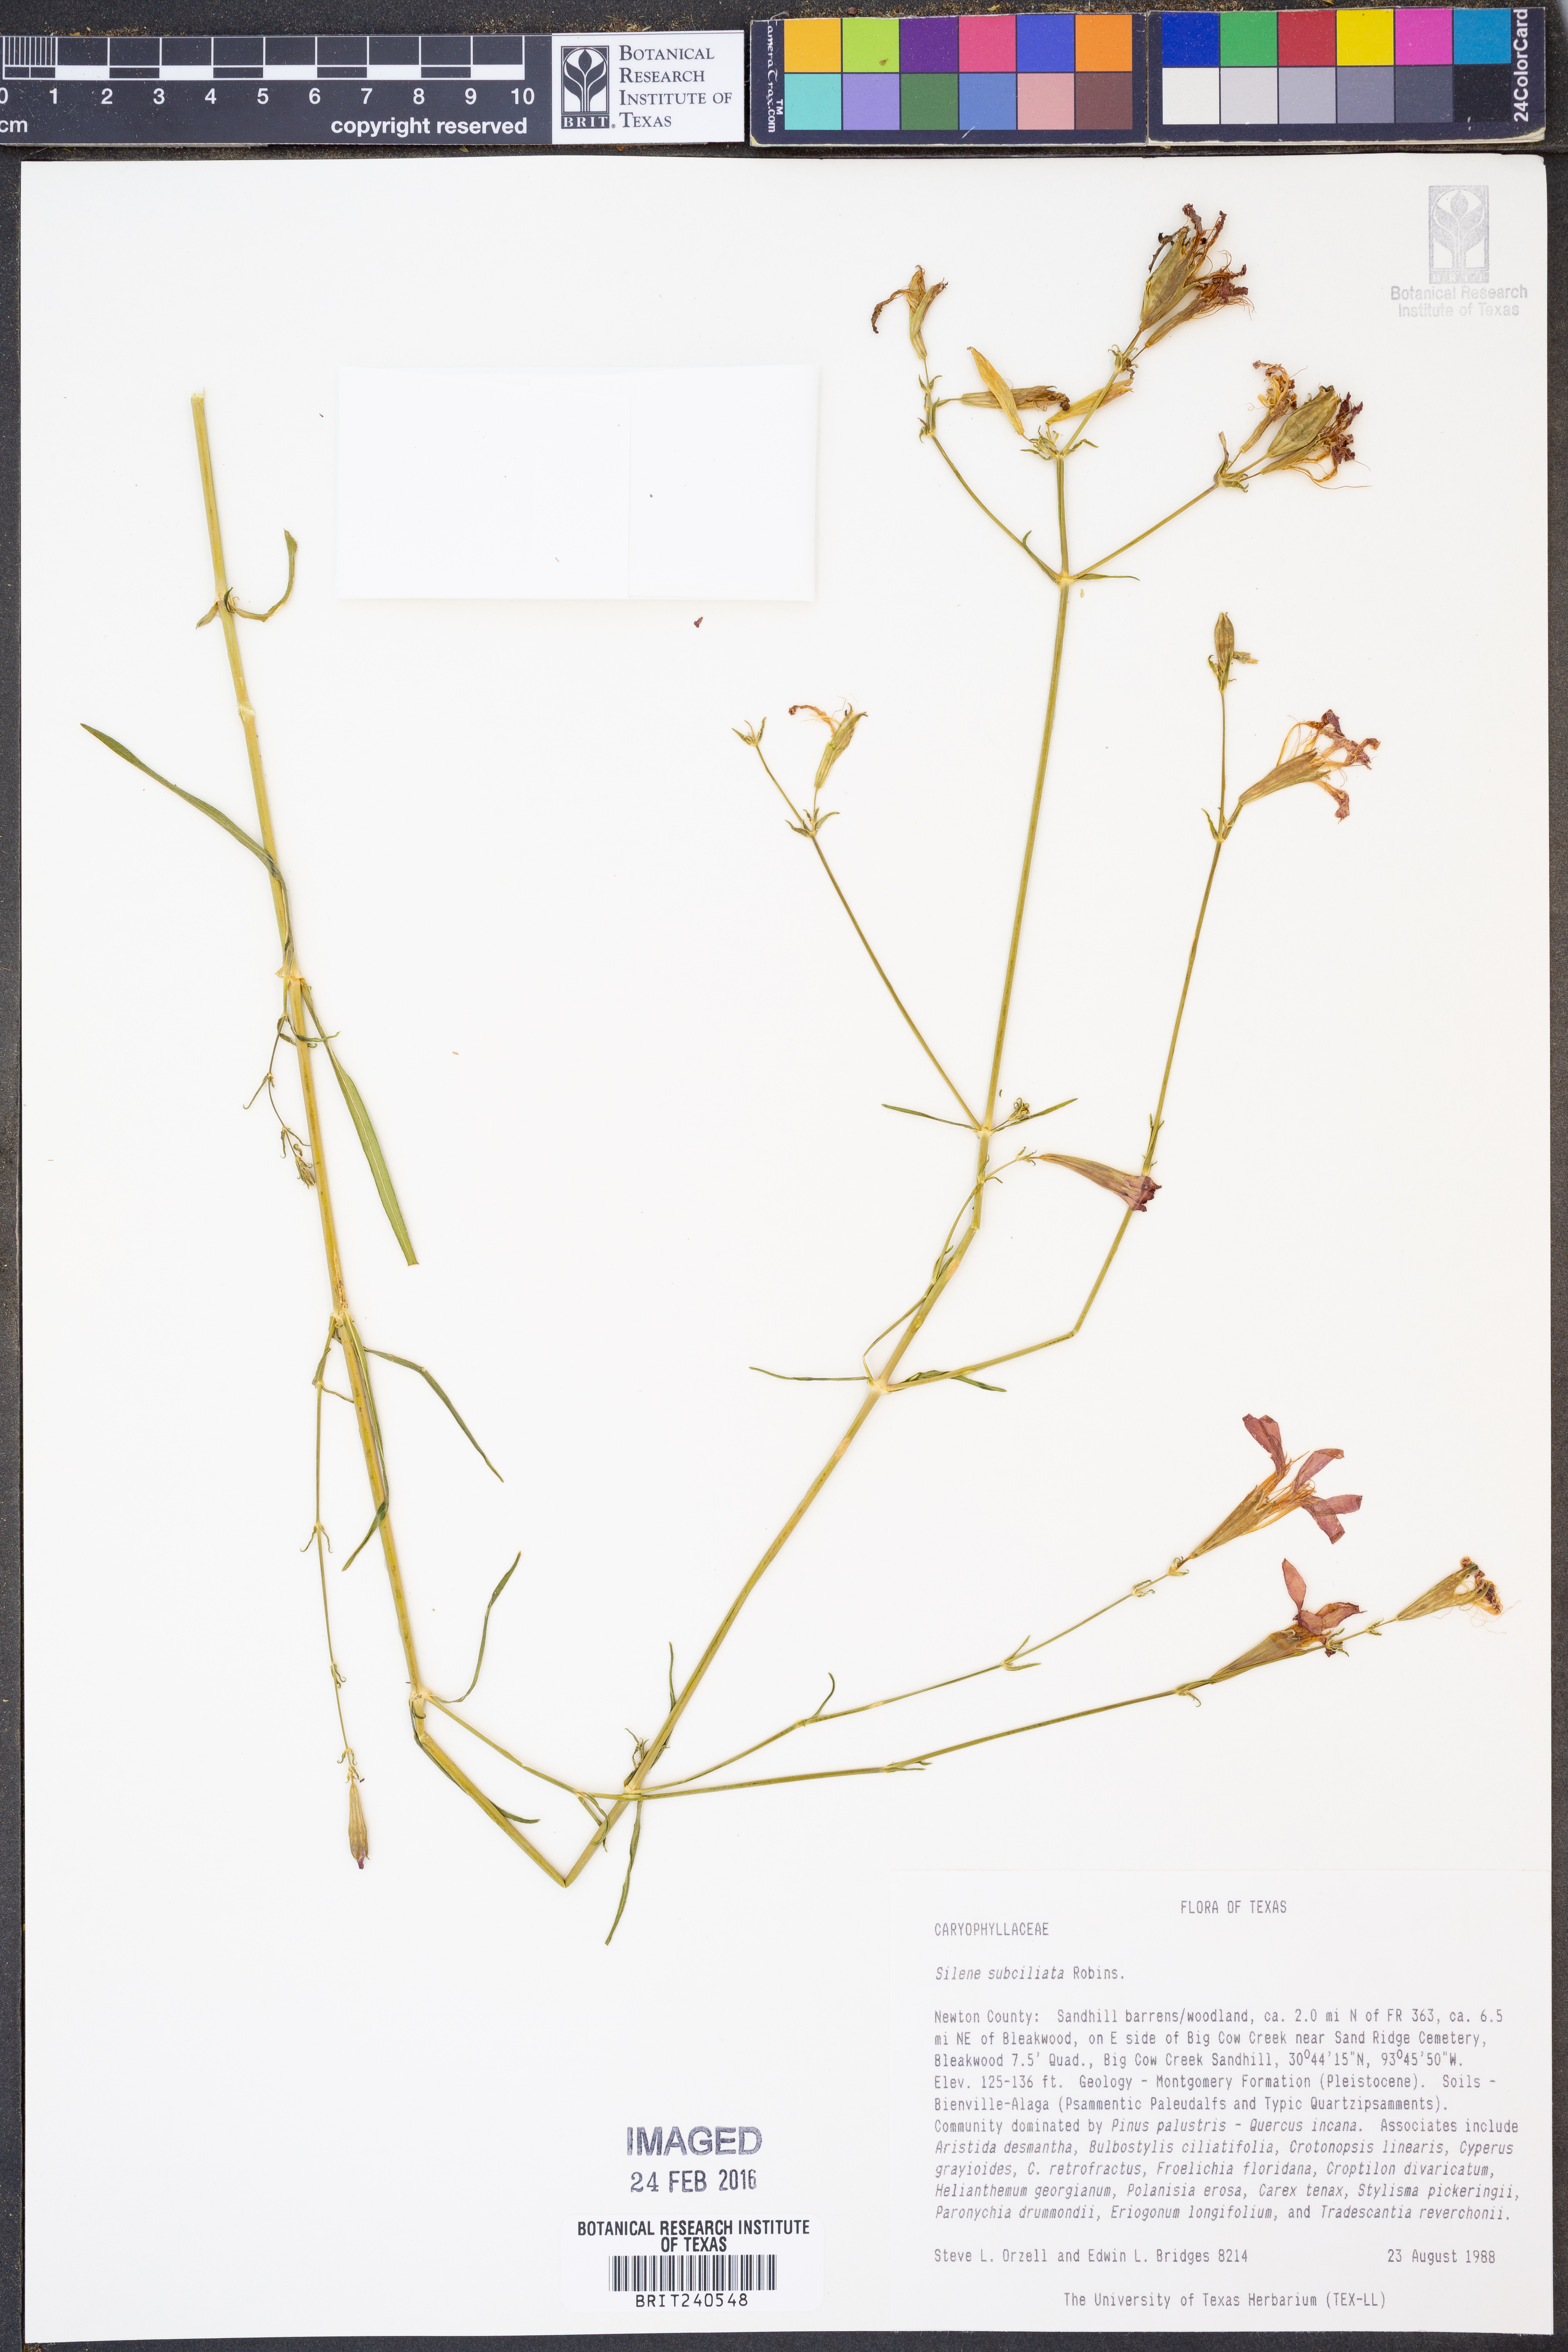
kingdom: Plantae
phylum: Tracheophyta
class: Magnoliopsida
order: Caryophyllales
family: Caryophyllaceae
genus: Silene
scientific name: Silene subciliata
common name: Prairie fire-pink
